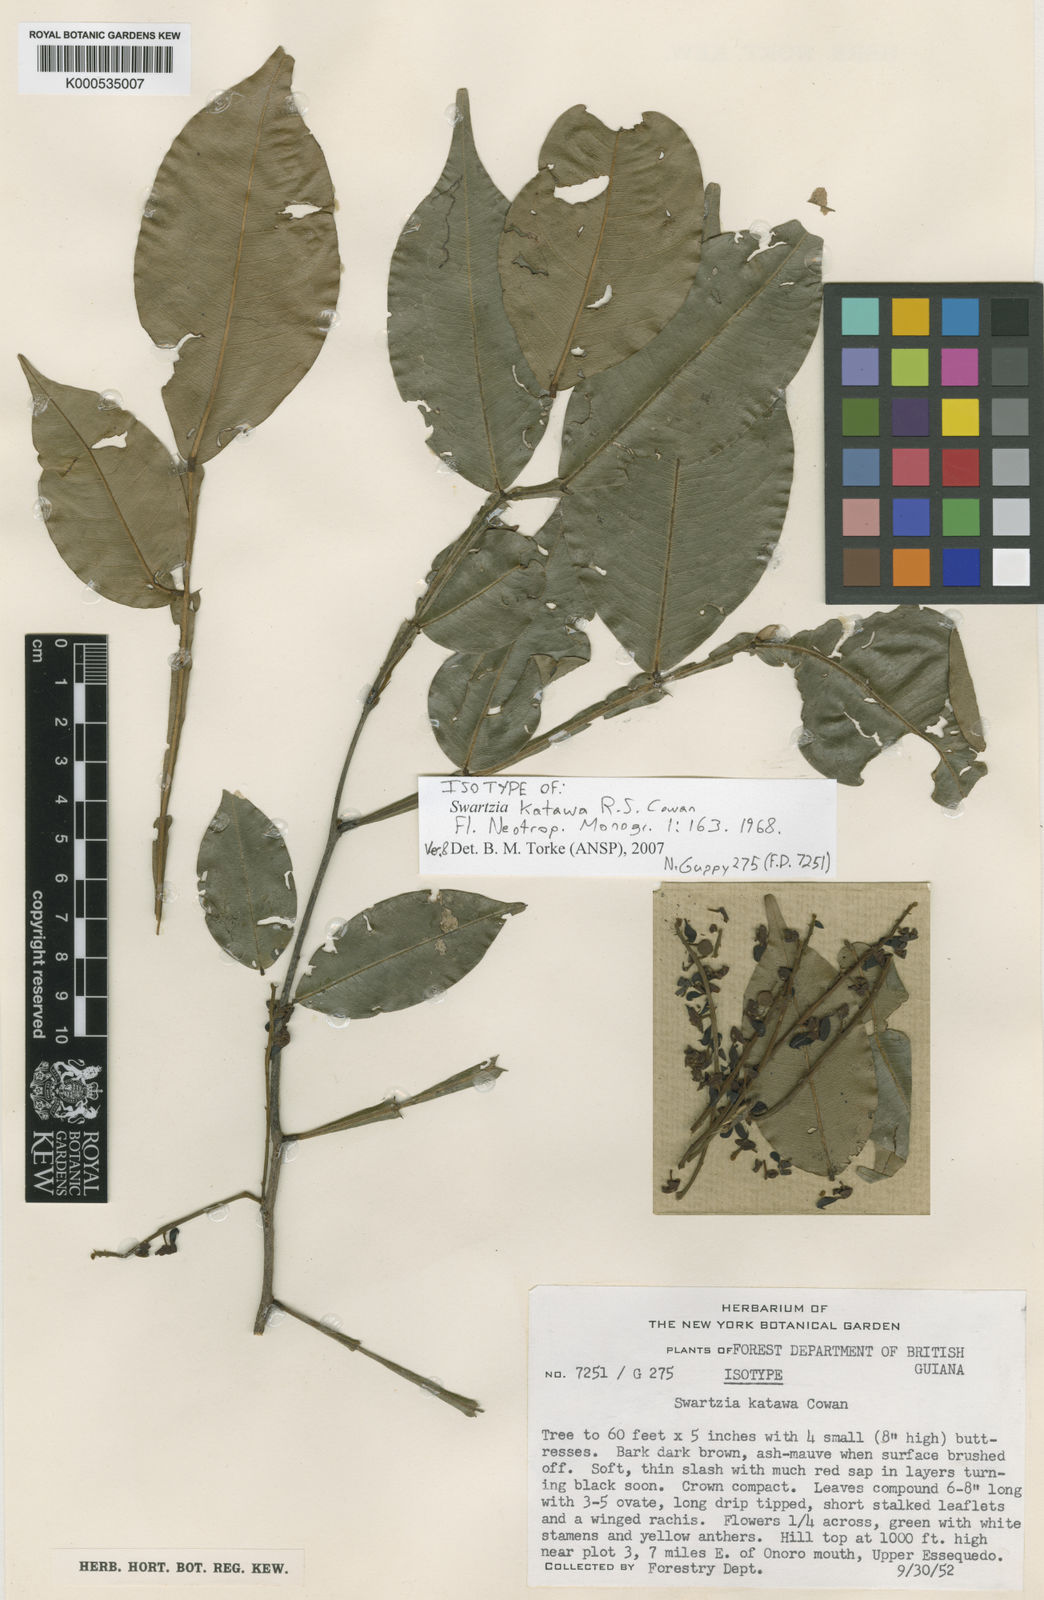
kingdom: Plantae
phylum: Tracheophyta
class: Magnoliopsida
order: Fabales
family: Fabaceae
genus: Swartzia
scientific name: Swartzia katawa
